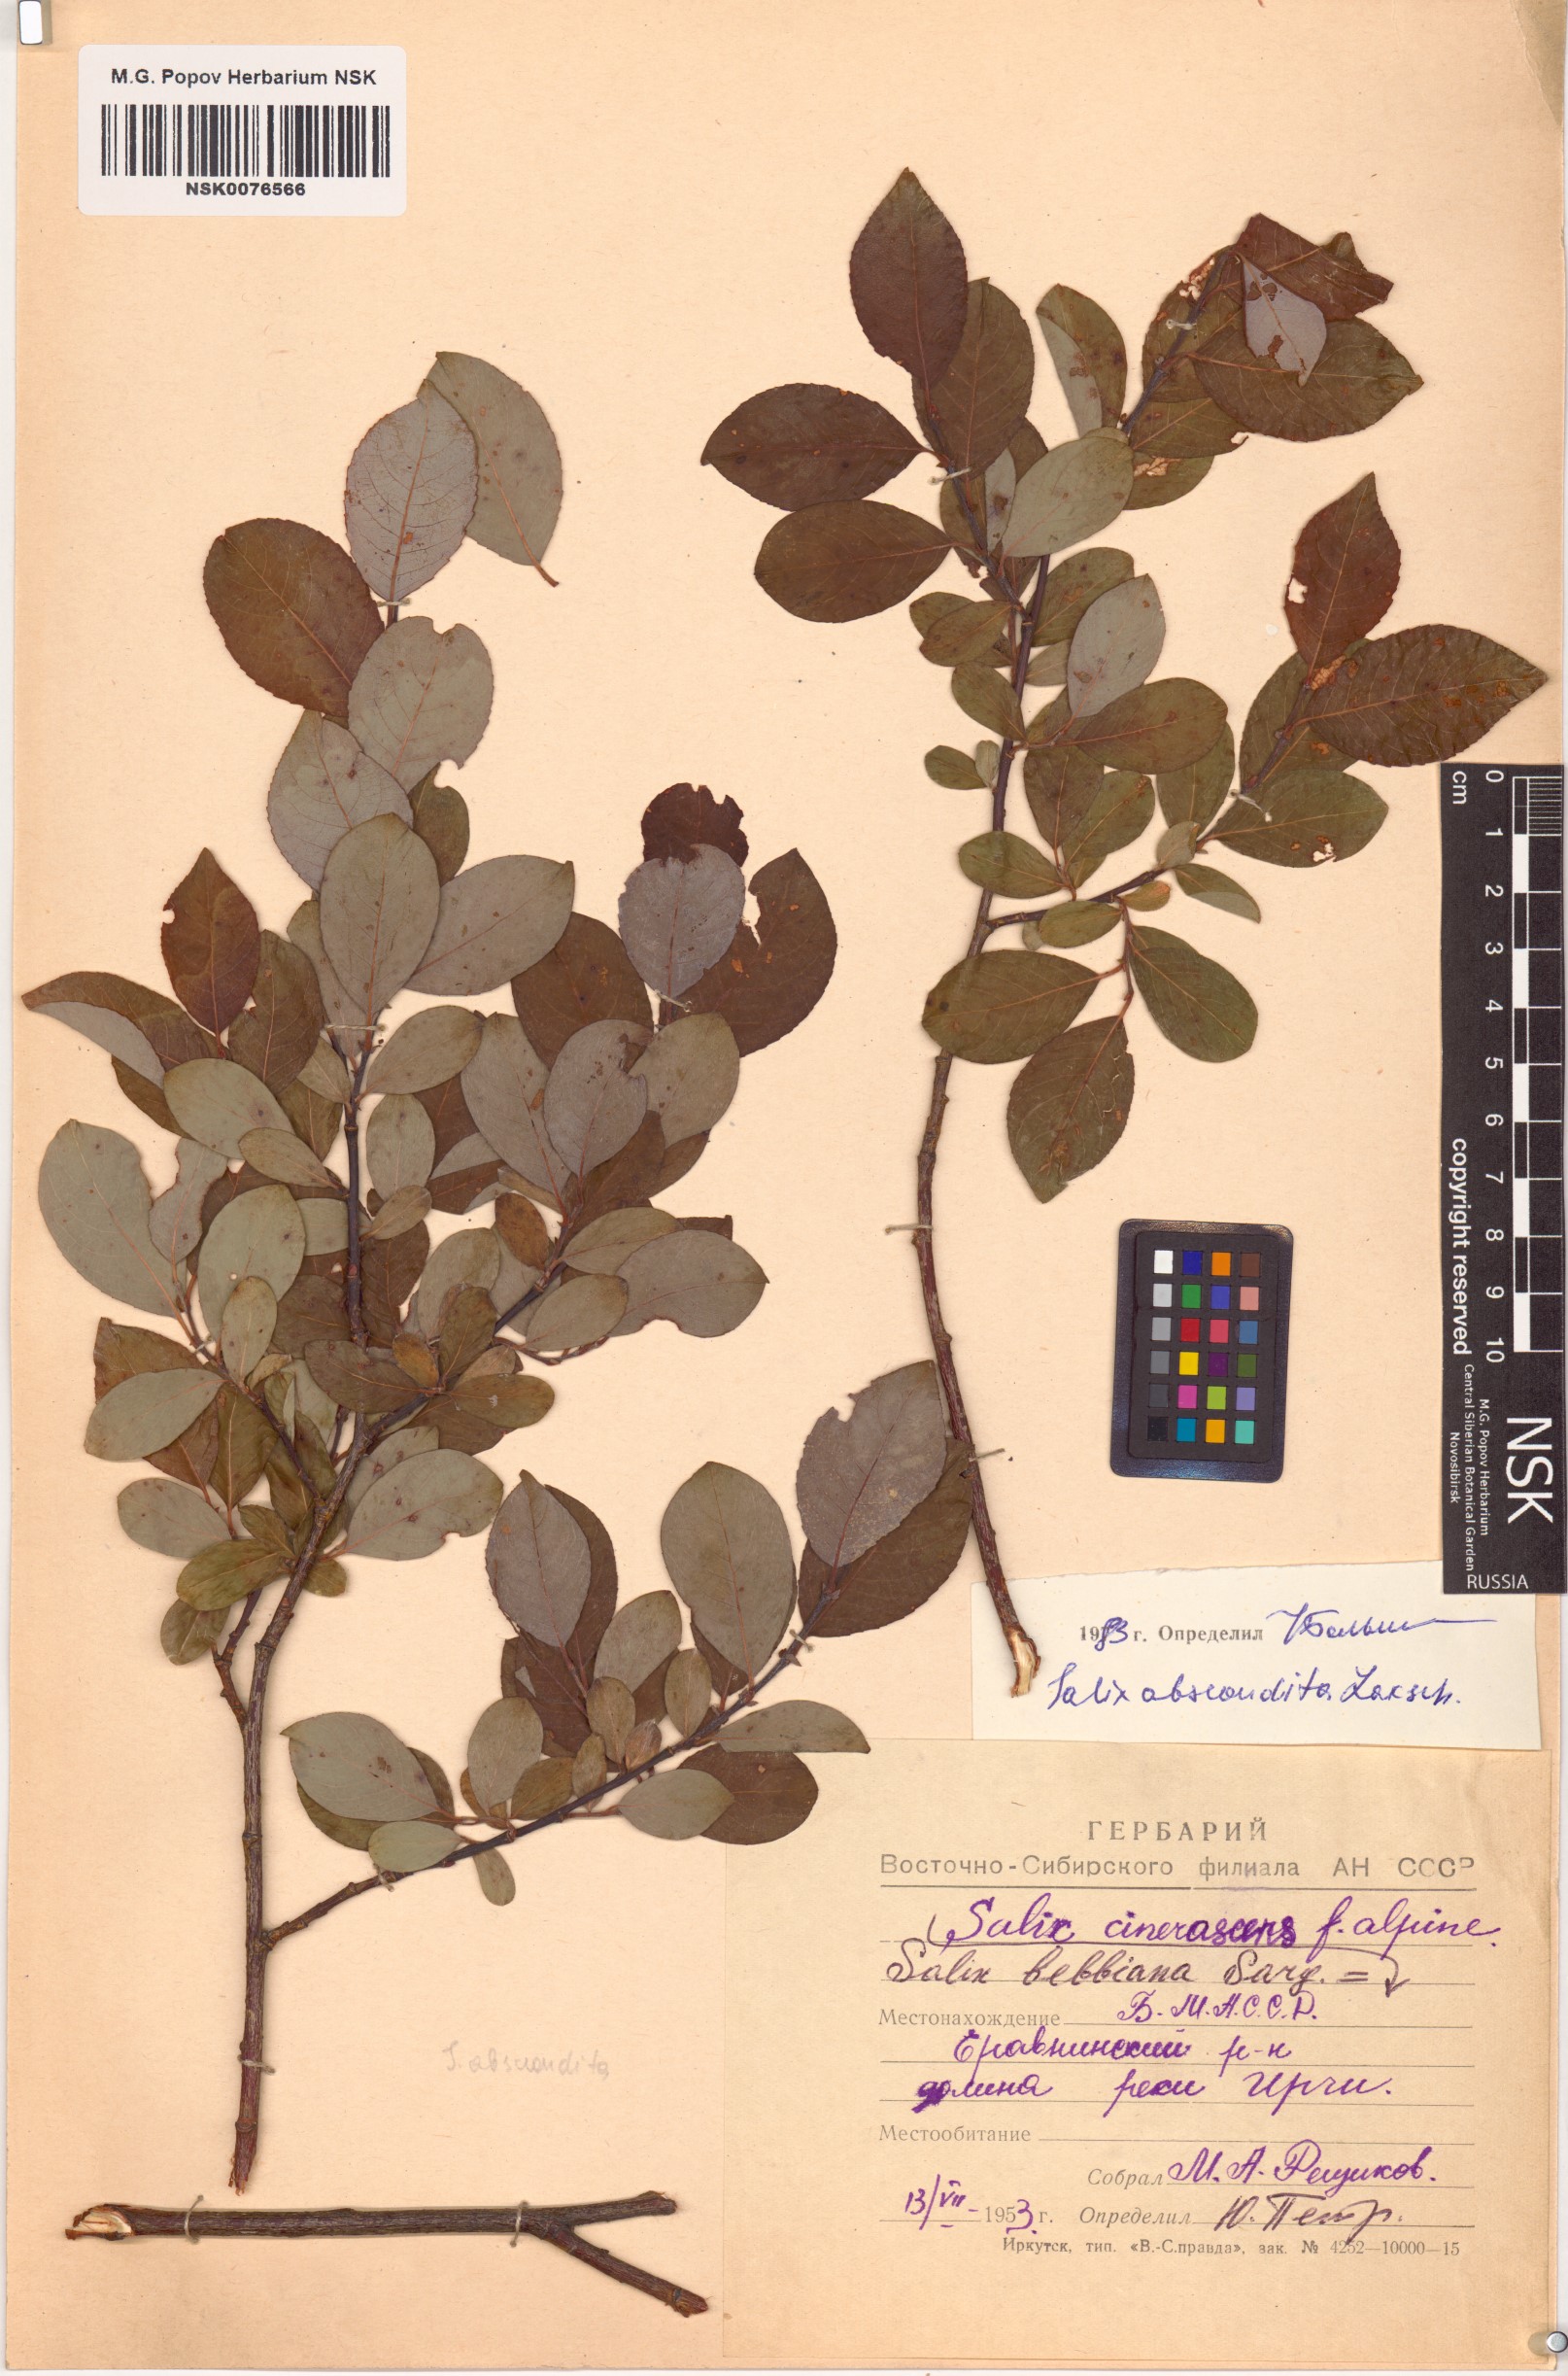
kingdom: Plantae
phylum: Tracheophyta
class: Magnoliopsida
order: Malpighiales
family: Salicaceae
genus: Salix
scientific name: Salix abscondita
